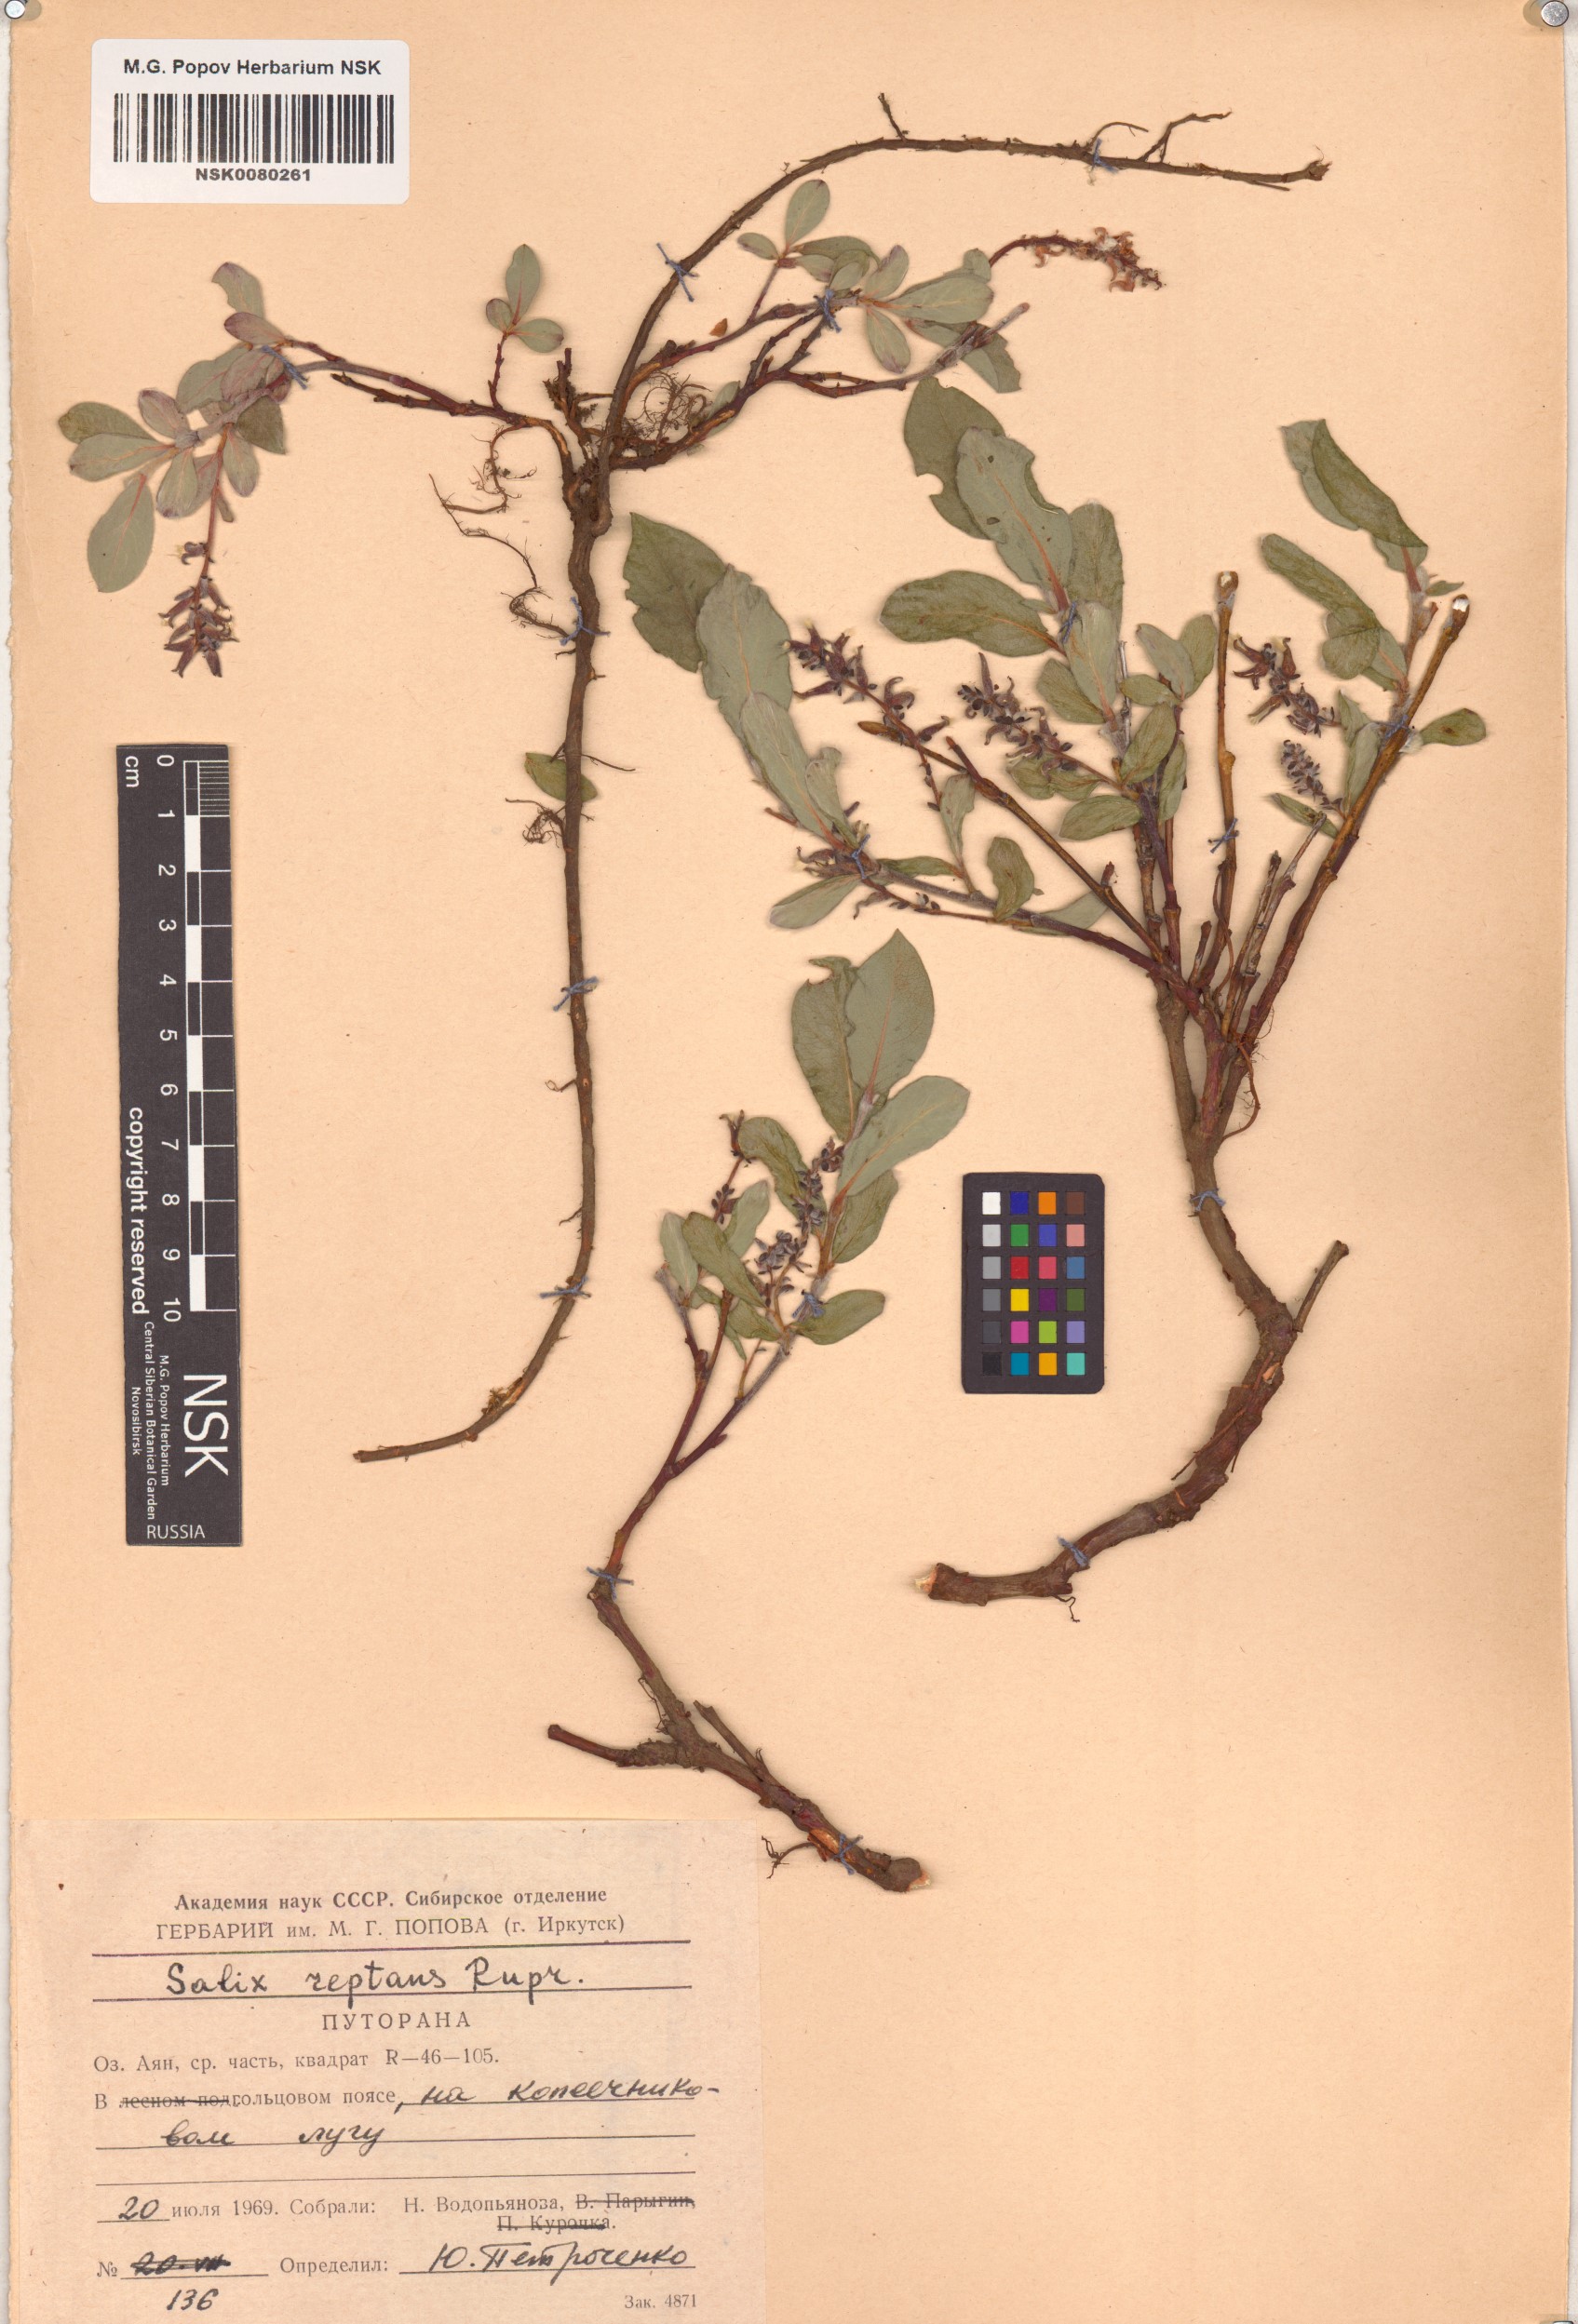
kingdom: Plantae
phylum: Tracheophyta
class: Magnoliopsida
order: Malpighiales
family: Salicaceae
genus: Salix
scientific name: Salix reptans
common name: Arctic creeping willow
